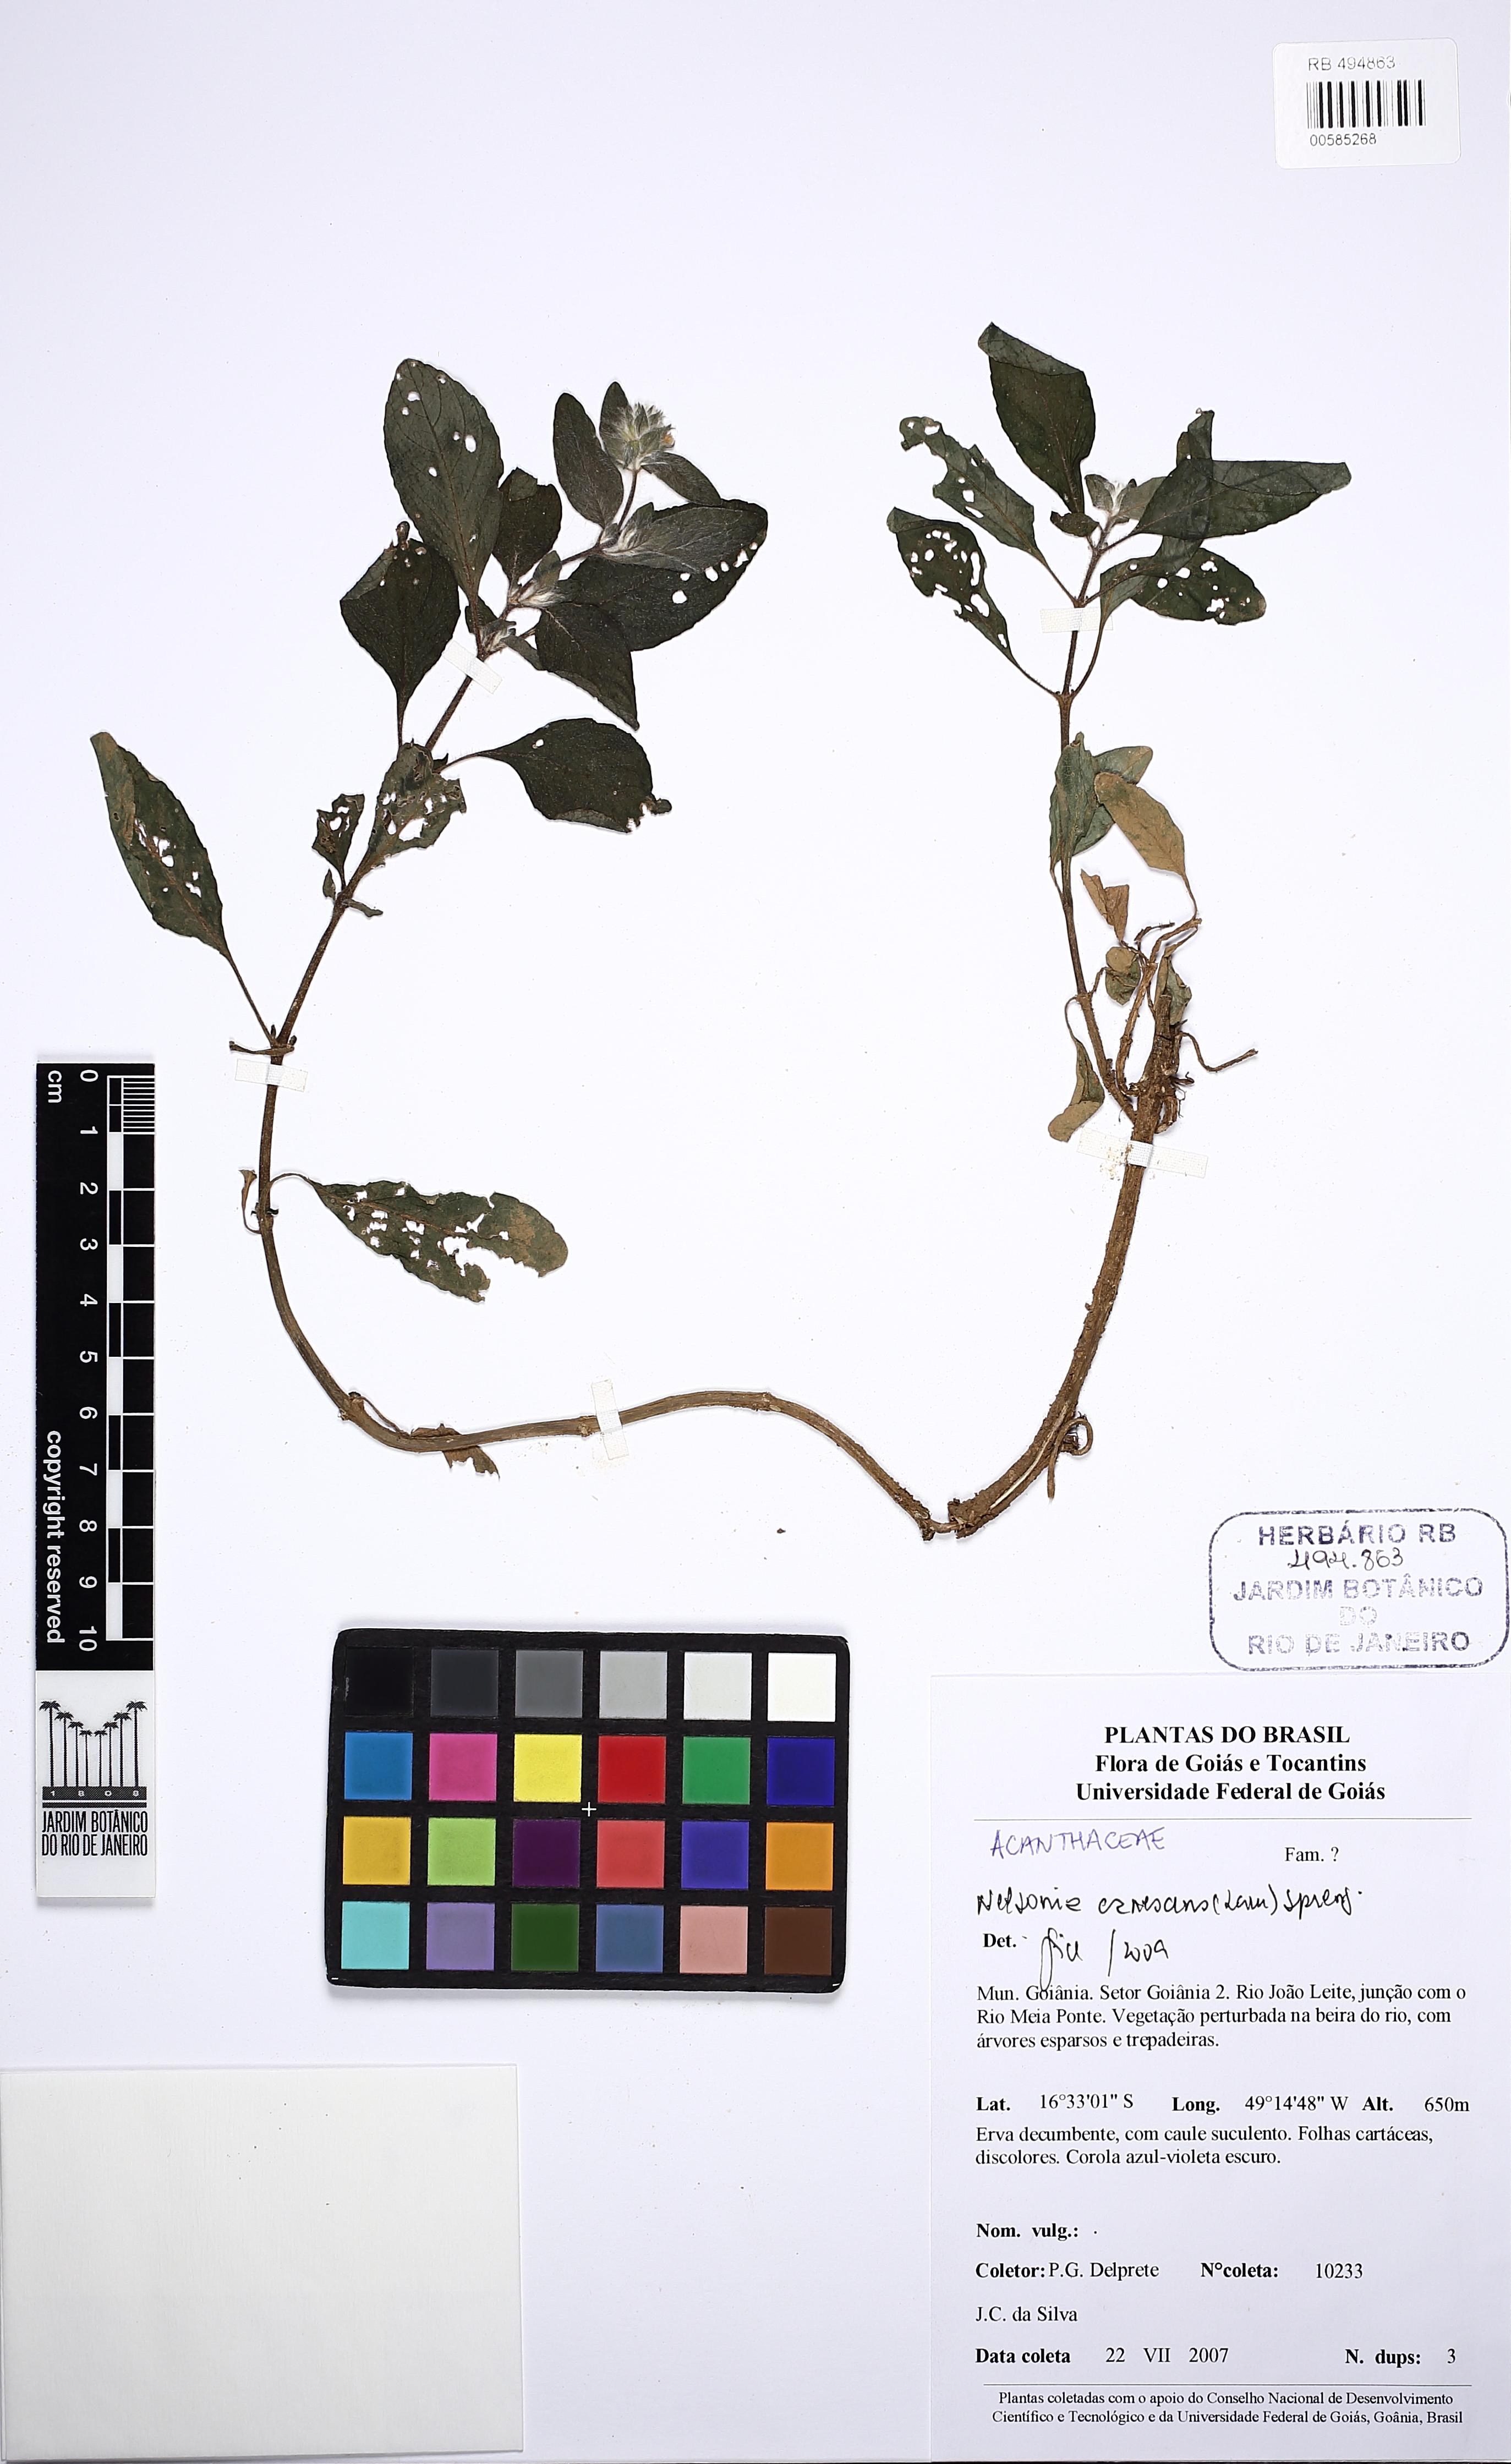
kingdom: Plantae
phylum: Tracheophyta
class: Magnoliopsida
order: Lamiales
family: Acanthaceae
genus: Nelsonia
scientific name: Nelsonia canescens
